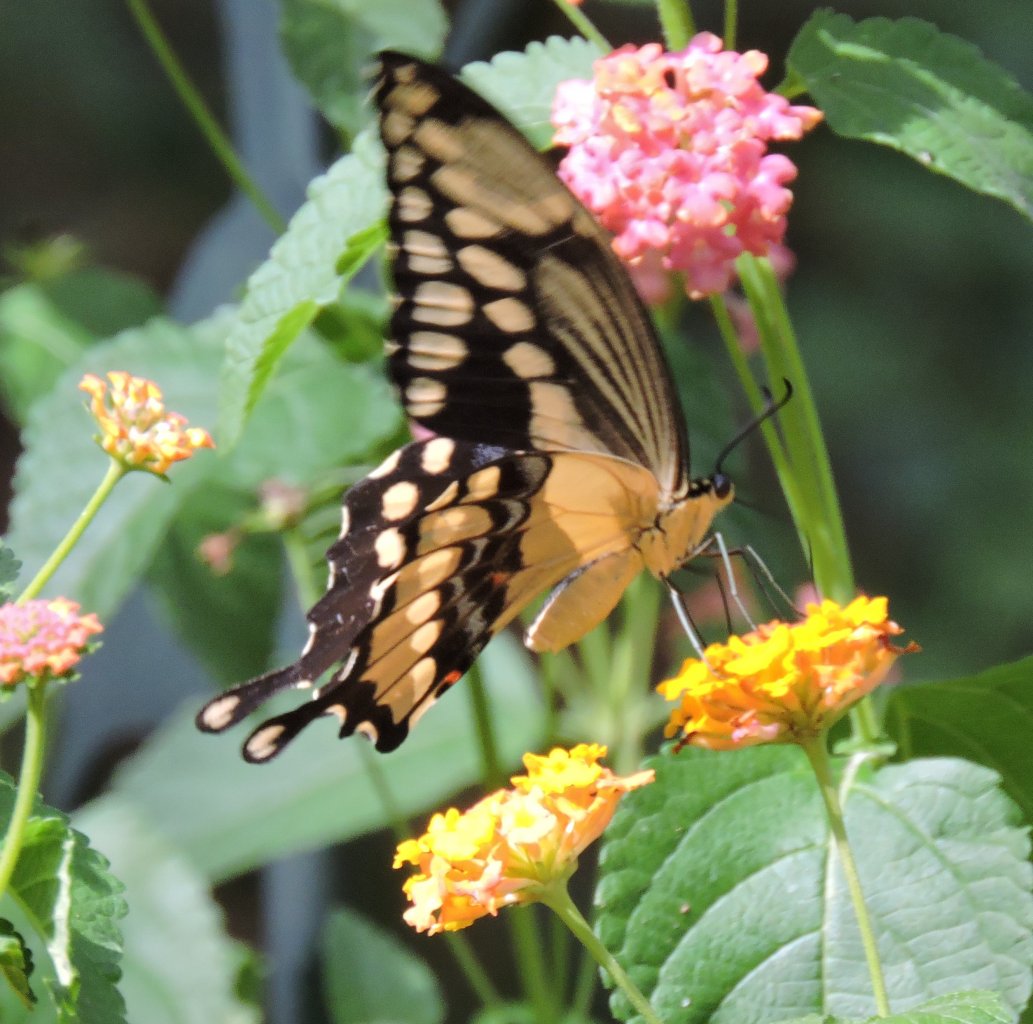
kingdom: Animalia
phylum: Arthropoda
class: Insecta
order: Lepidoptera
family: Papilionidae
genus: Papilio
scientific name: Papilio cresphontes
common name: Eastern Giant Swallowtail
